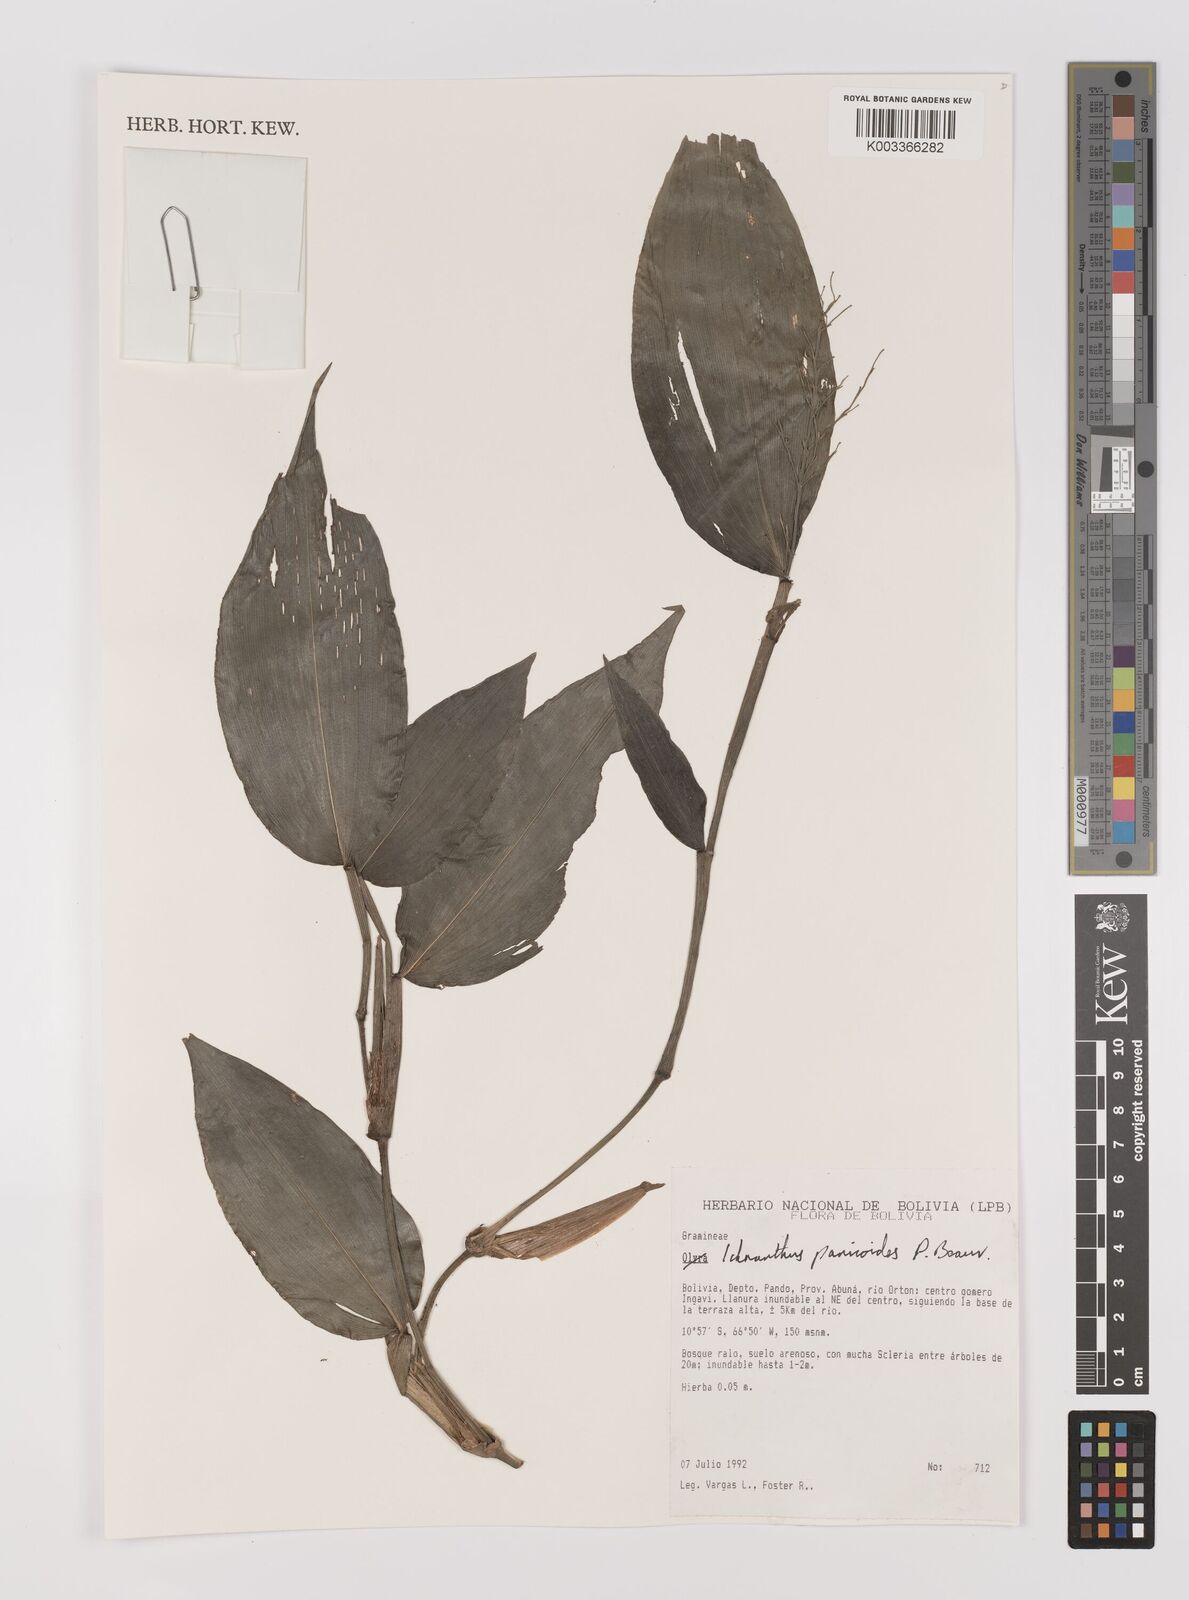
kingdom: Plantae
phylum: Tracheophyta
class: Liliopsida
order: Poales
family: Poaceae
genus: Ichnanthus
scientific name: Ichnanthus panicoides
